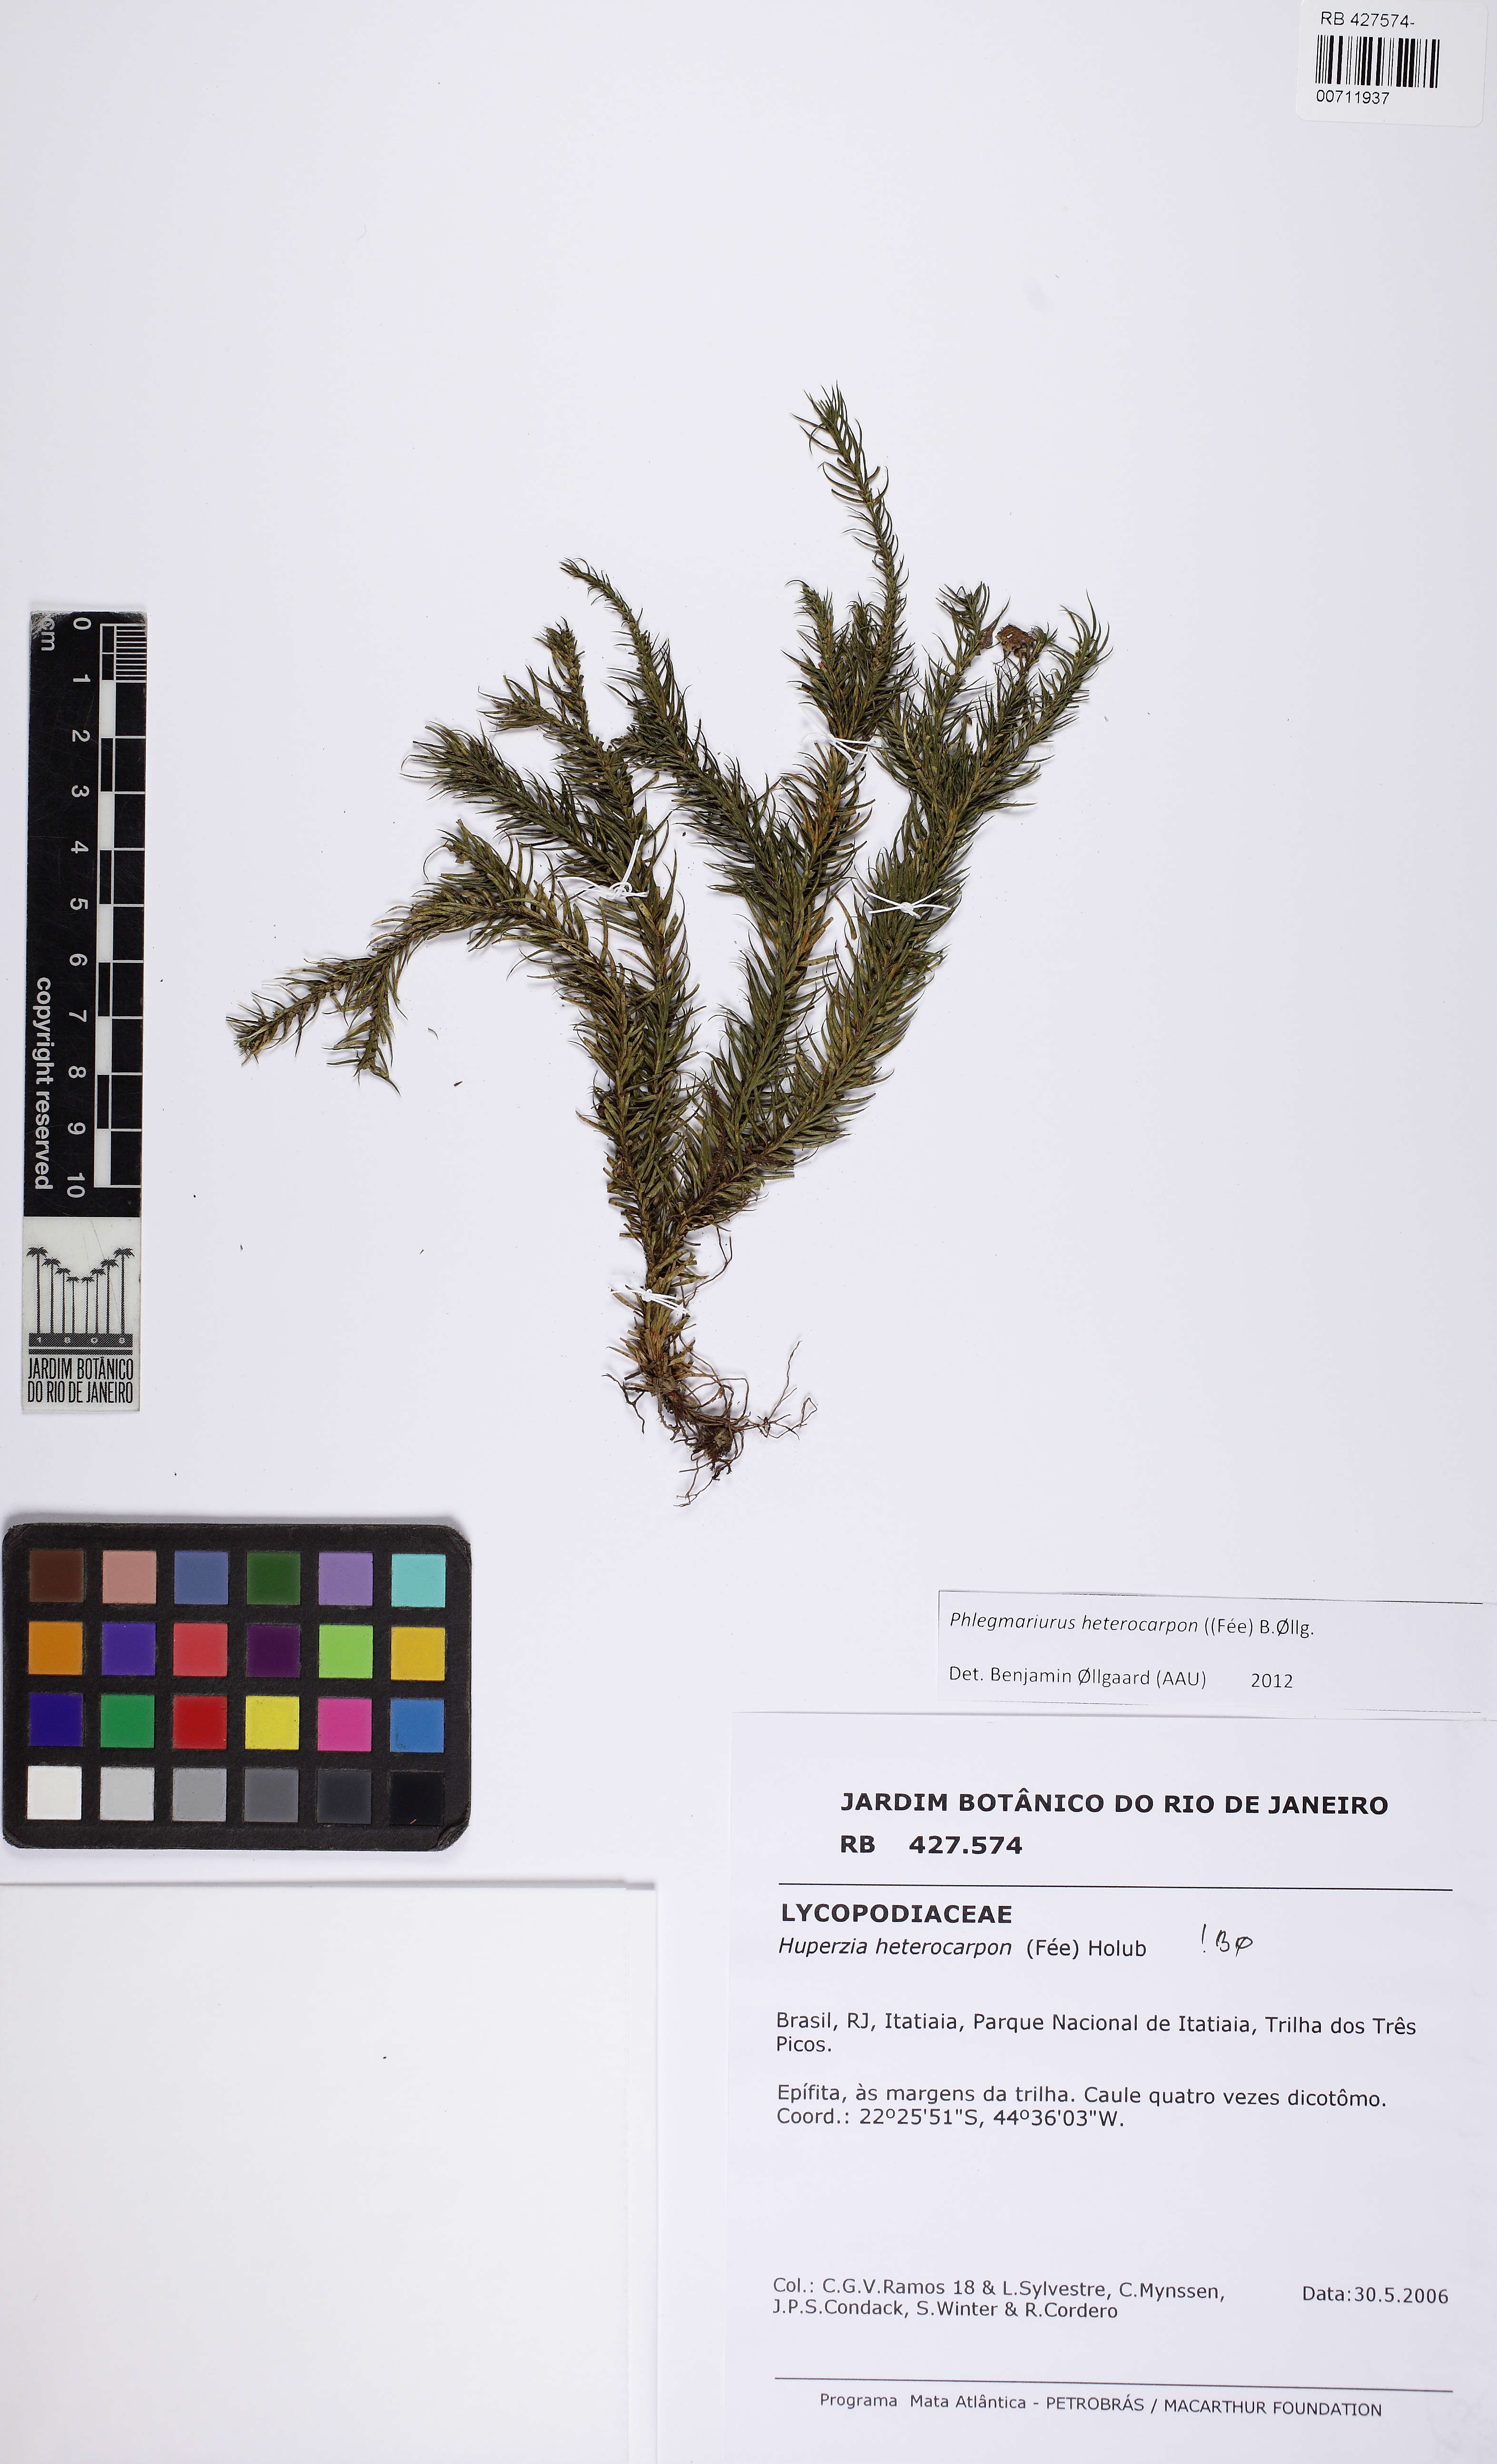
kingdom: Plantae
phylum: Tracheophyta
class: Lycopodiopsida
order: Lycopodiales
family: Lycopodiaceae
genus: Phlegmariurus
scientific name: Phlegmariurus heterocarpos
